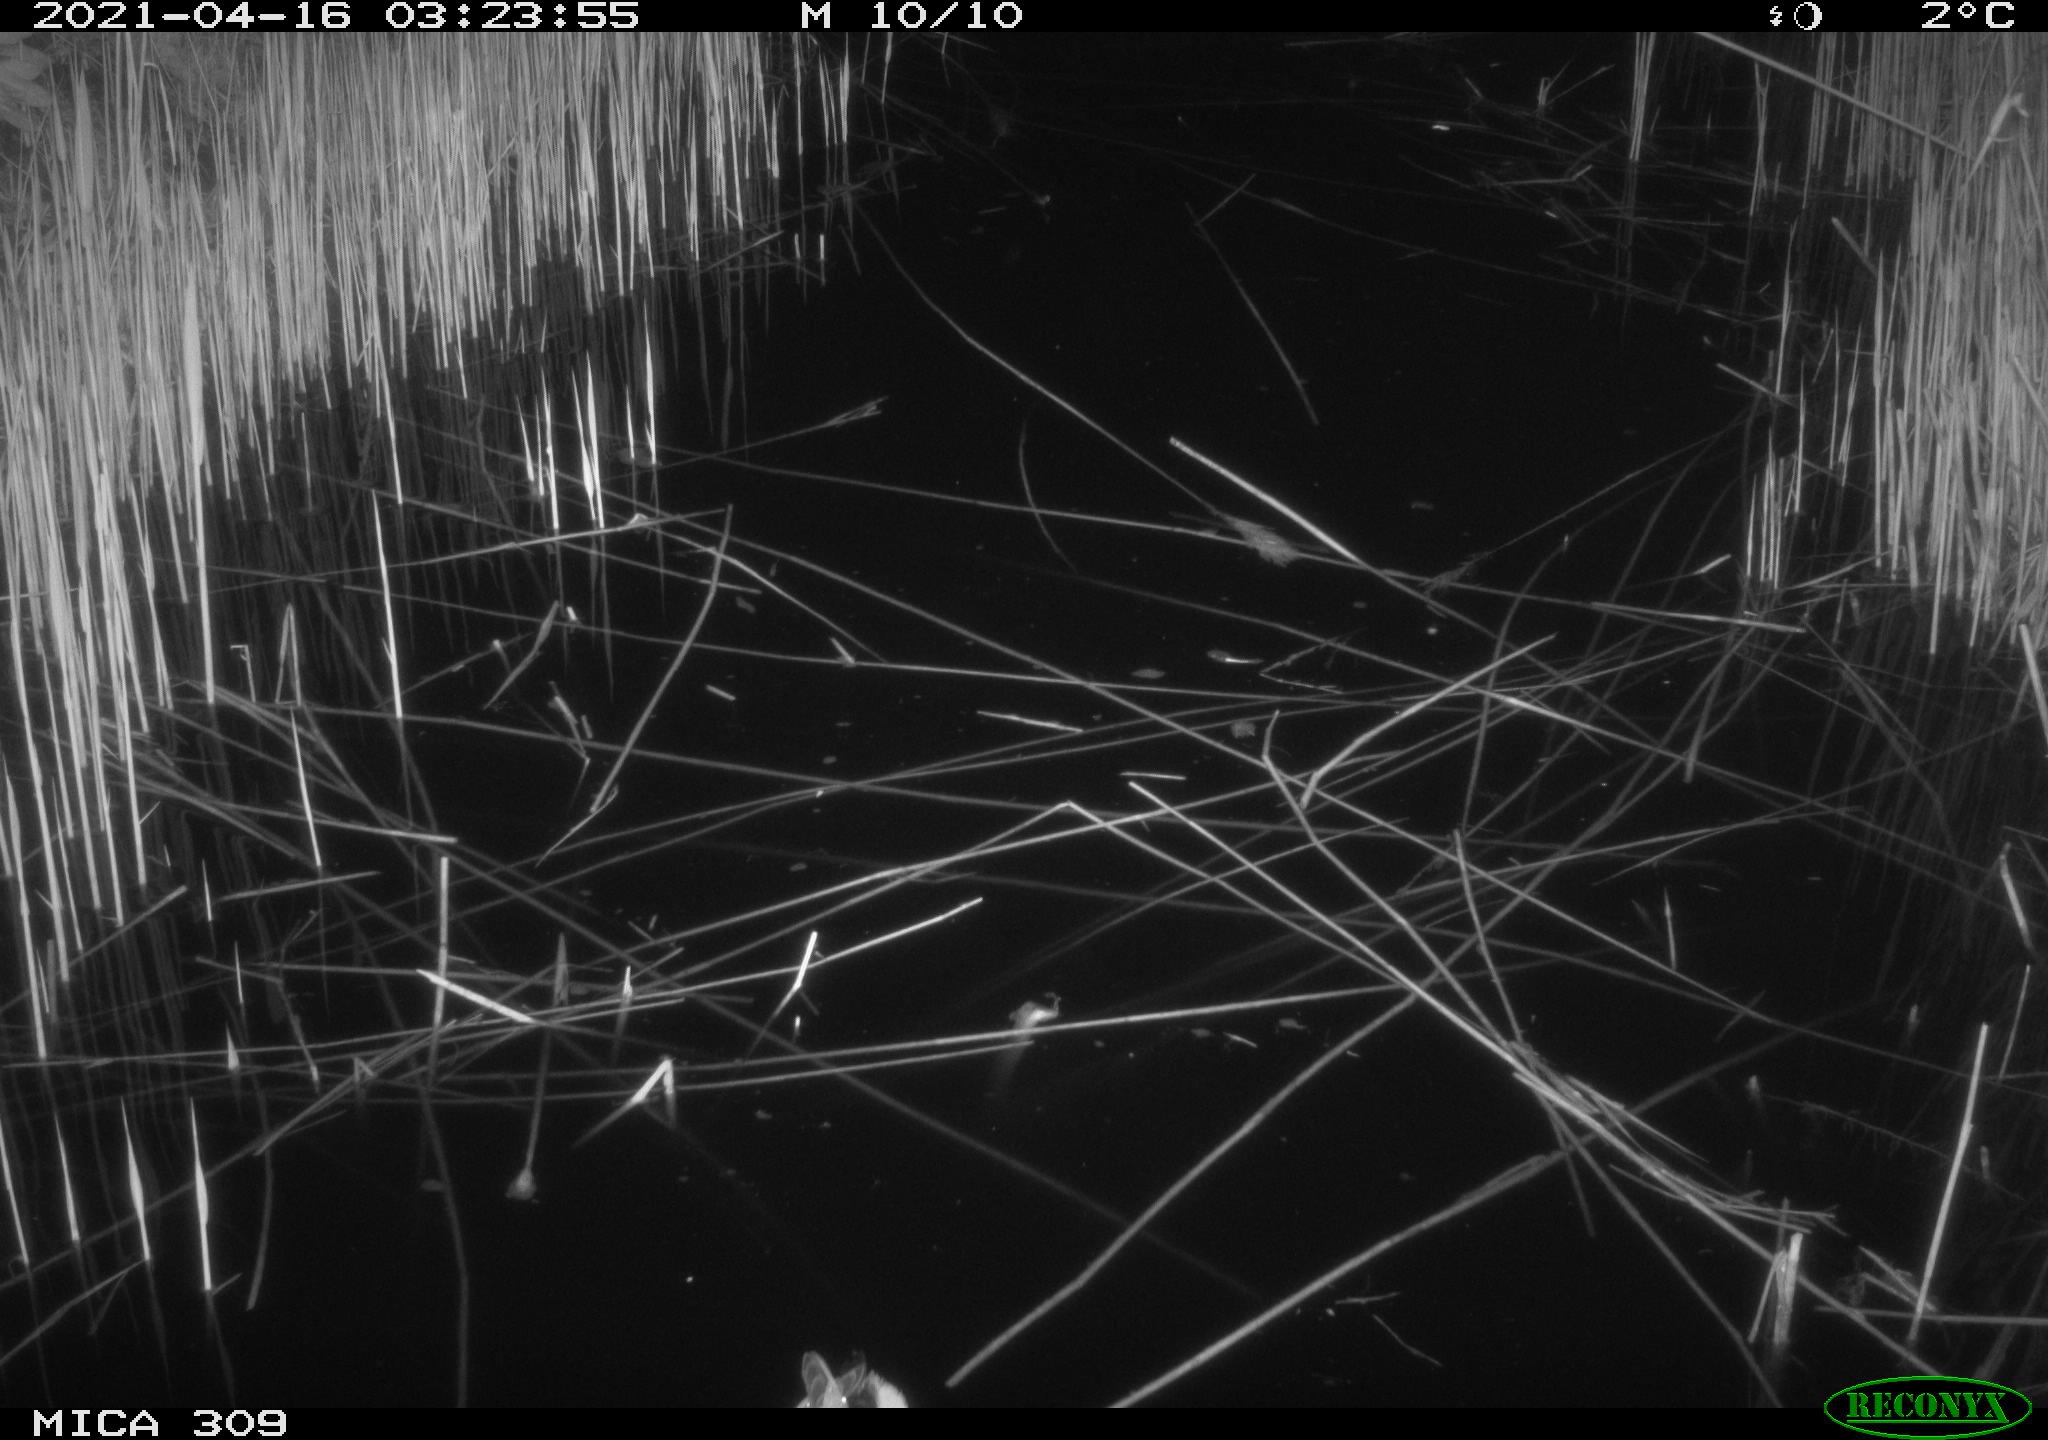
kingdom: Animalia
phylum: Chordata
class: Aves
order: Anseriformes
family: Anatidae
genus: Anas
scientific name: Anas platyrhynchos
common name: Mallard
